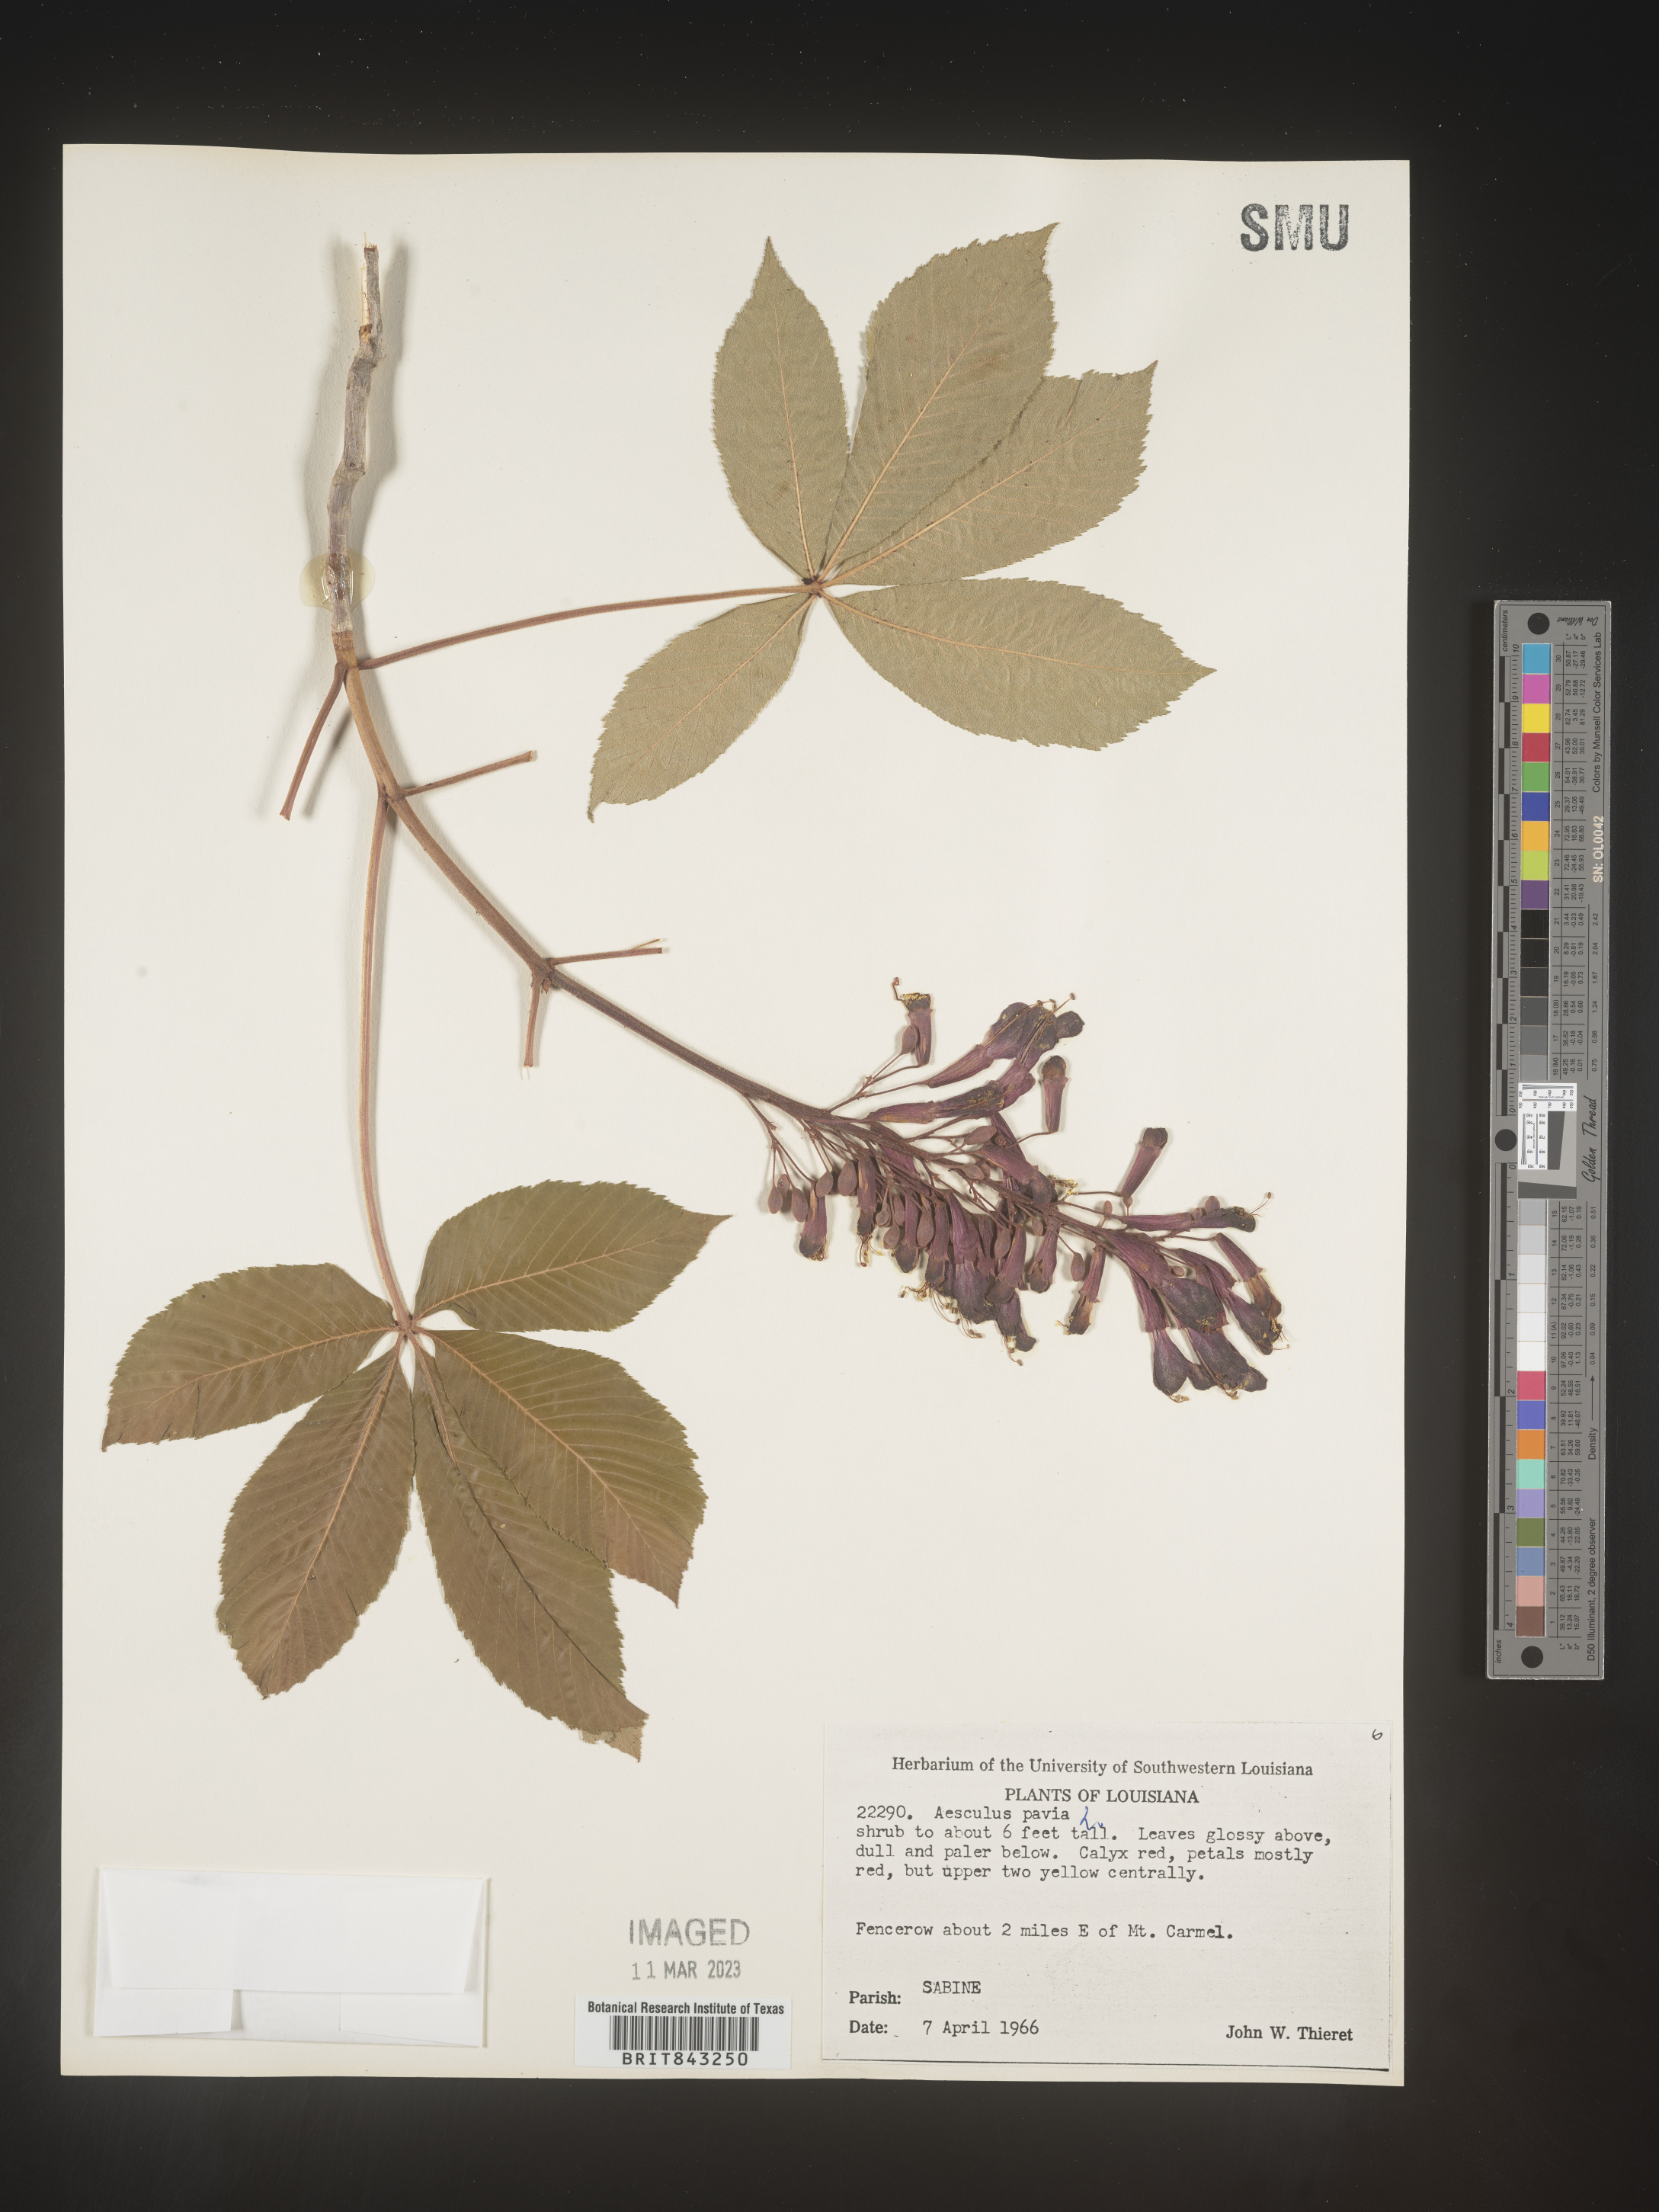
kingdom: Plantae
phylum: Tracheophyta
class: Magnoliopsida
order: Sapindales
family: Sapindaceae
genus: Aesculus
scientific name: Aesculus pavia
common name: Red buckeye
